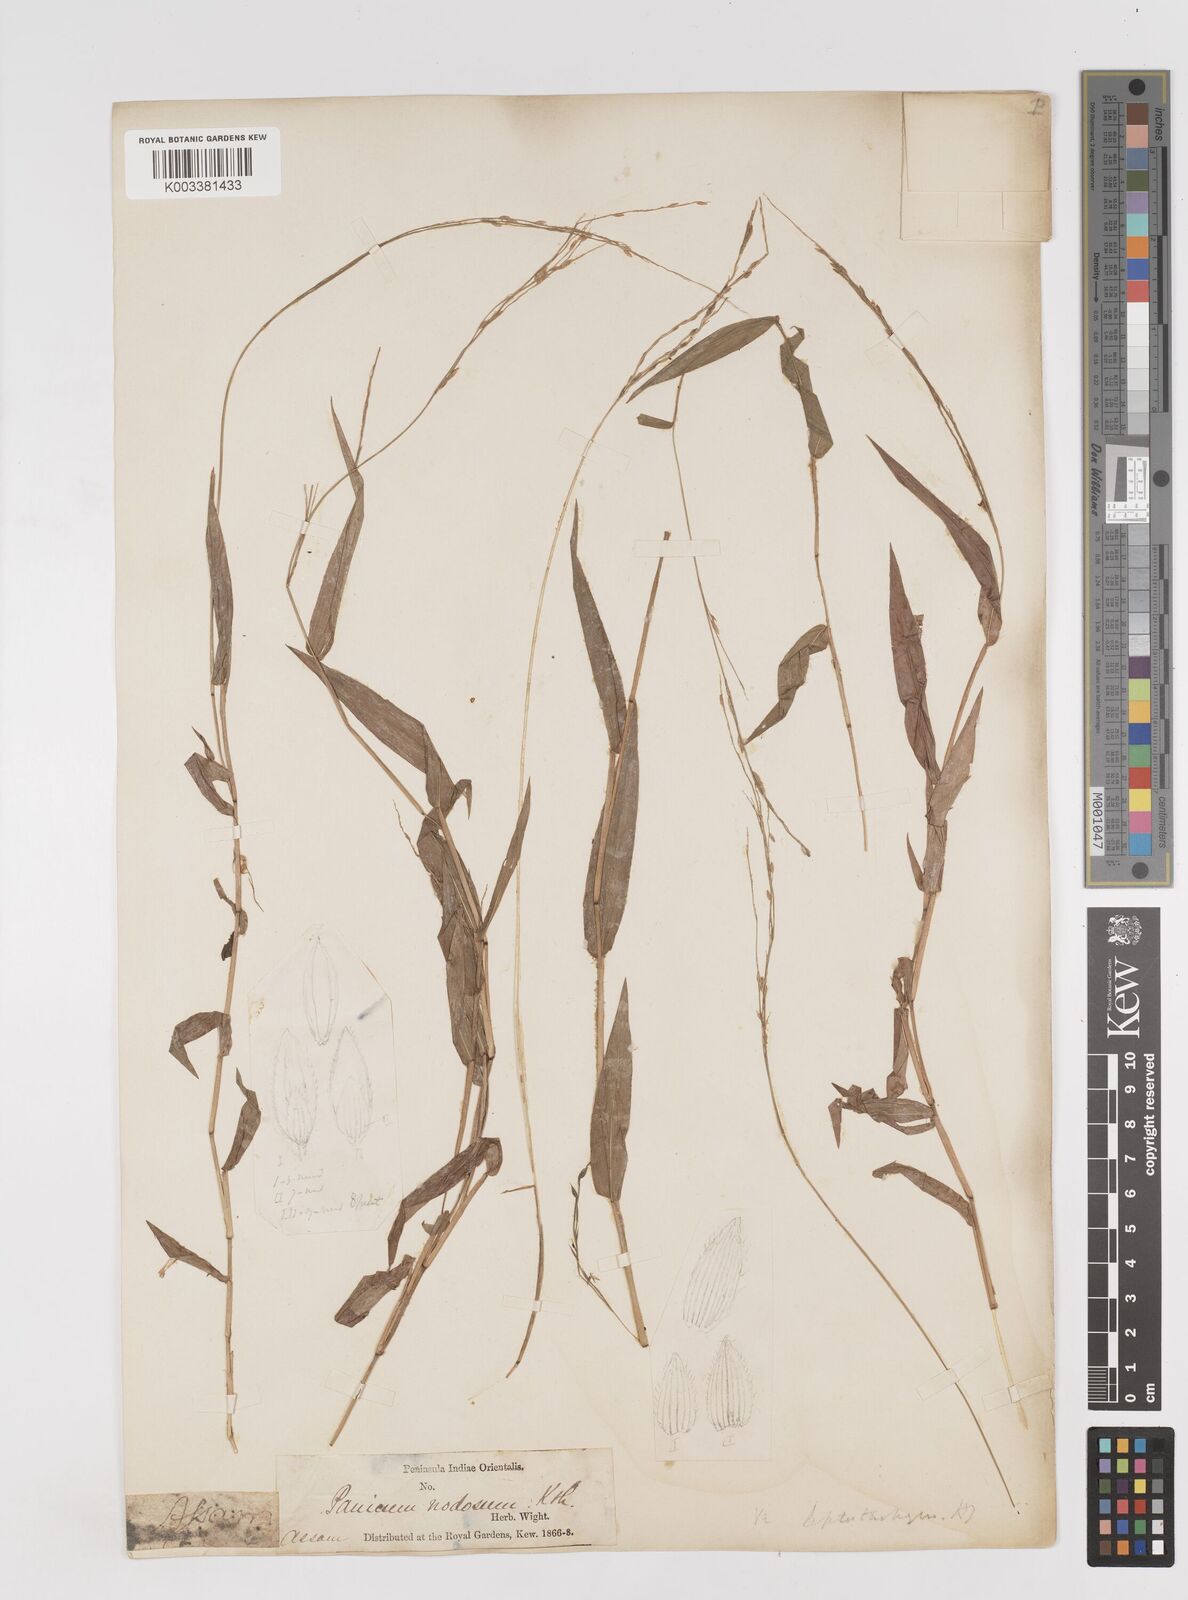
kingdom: Plantae
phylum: Tracheophyta
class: Liliopsida
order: Poales
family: Poaceae
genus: Ottochloa
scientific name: Ottochloa nodosa
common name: Slender-panic grass
